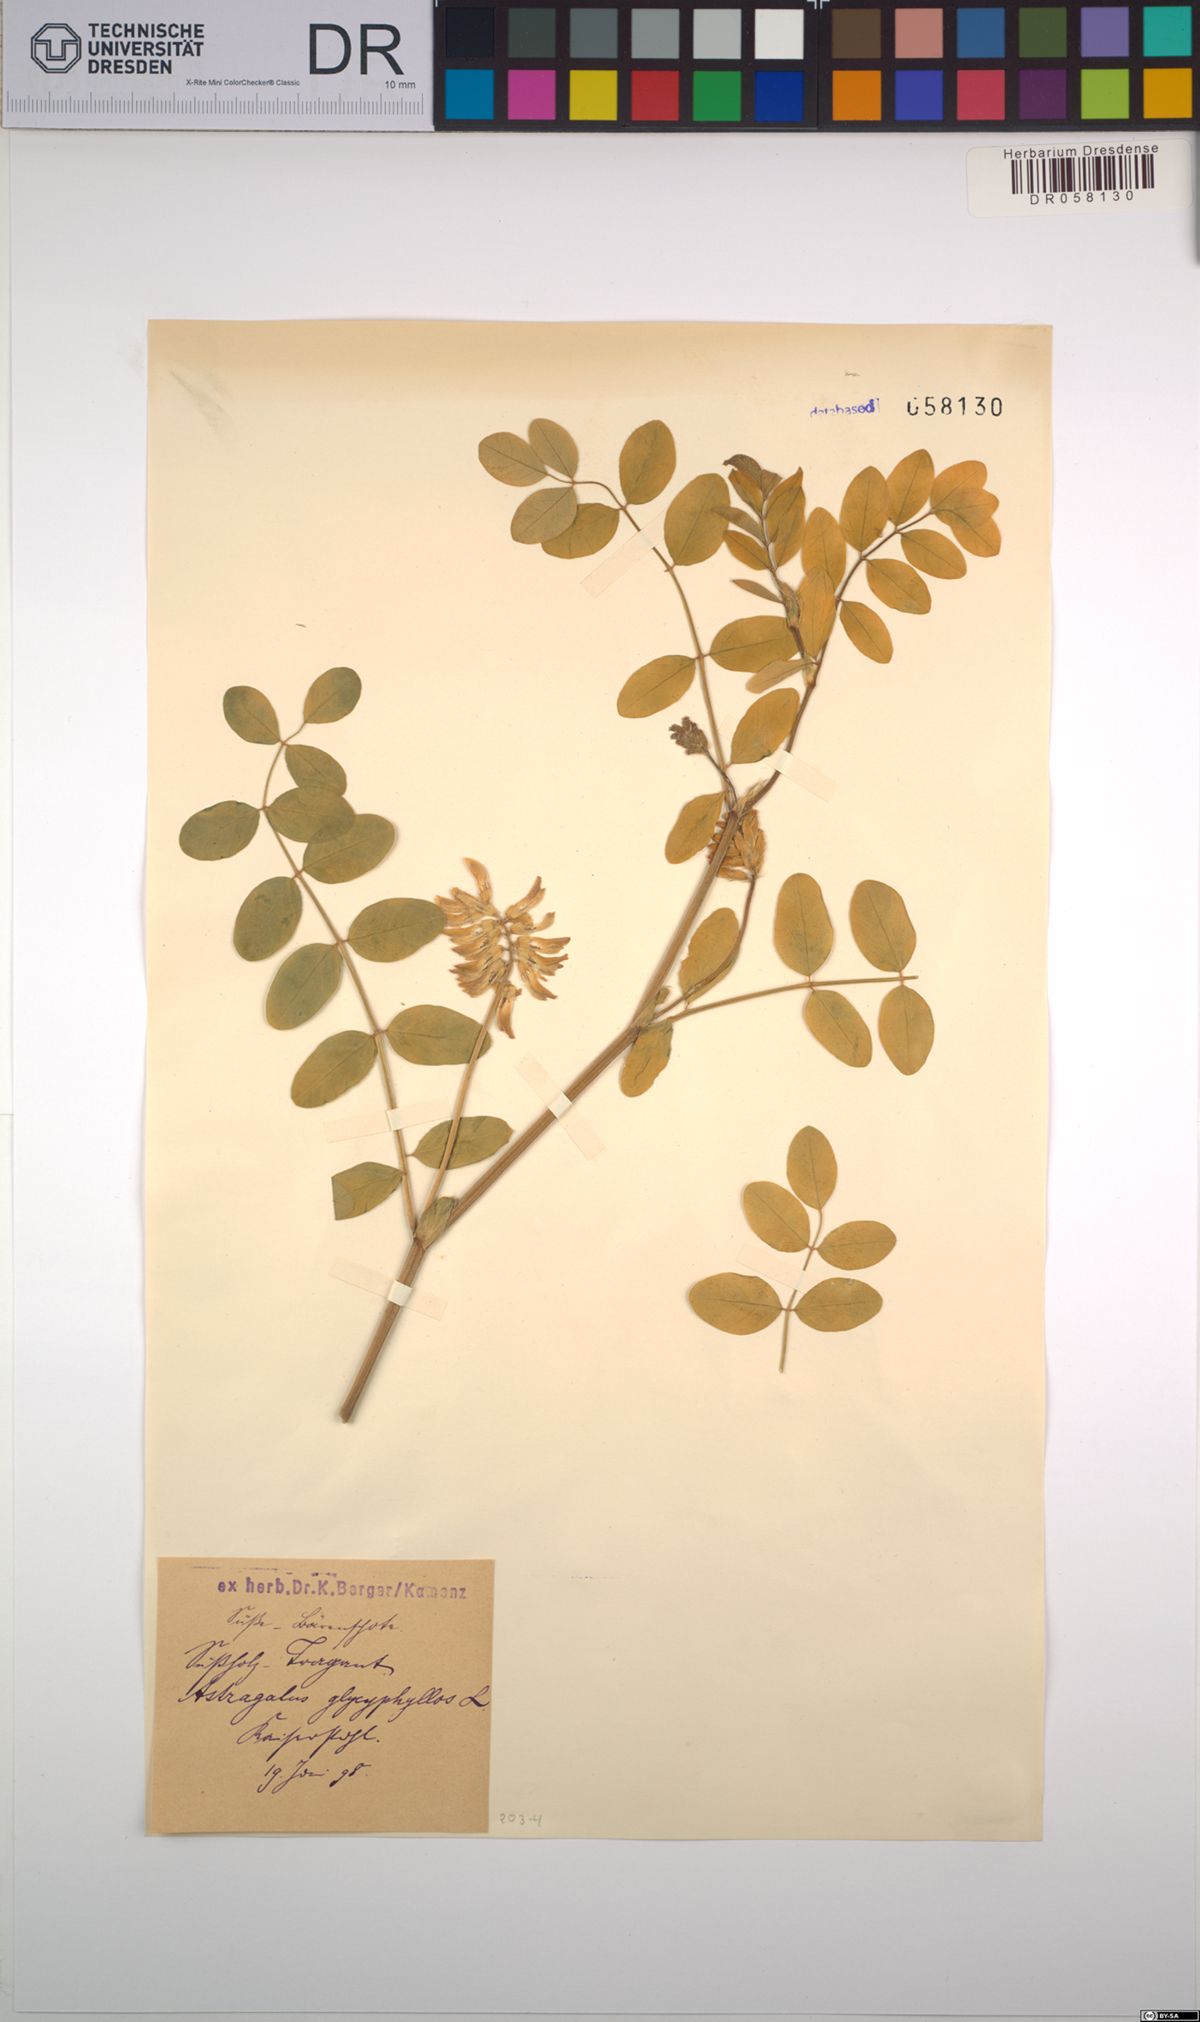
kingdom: Plantae
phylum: Tracheophyta
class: Magnoliopsida
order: Fabales
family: Fabaceae
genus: Astragalus
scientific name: Astragalus glycyphyllos
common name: Wild liquorice
